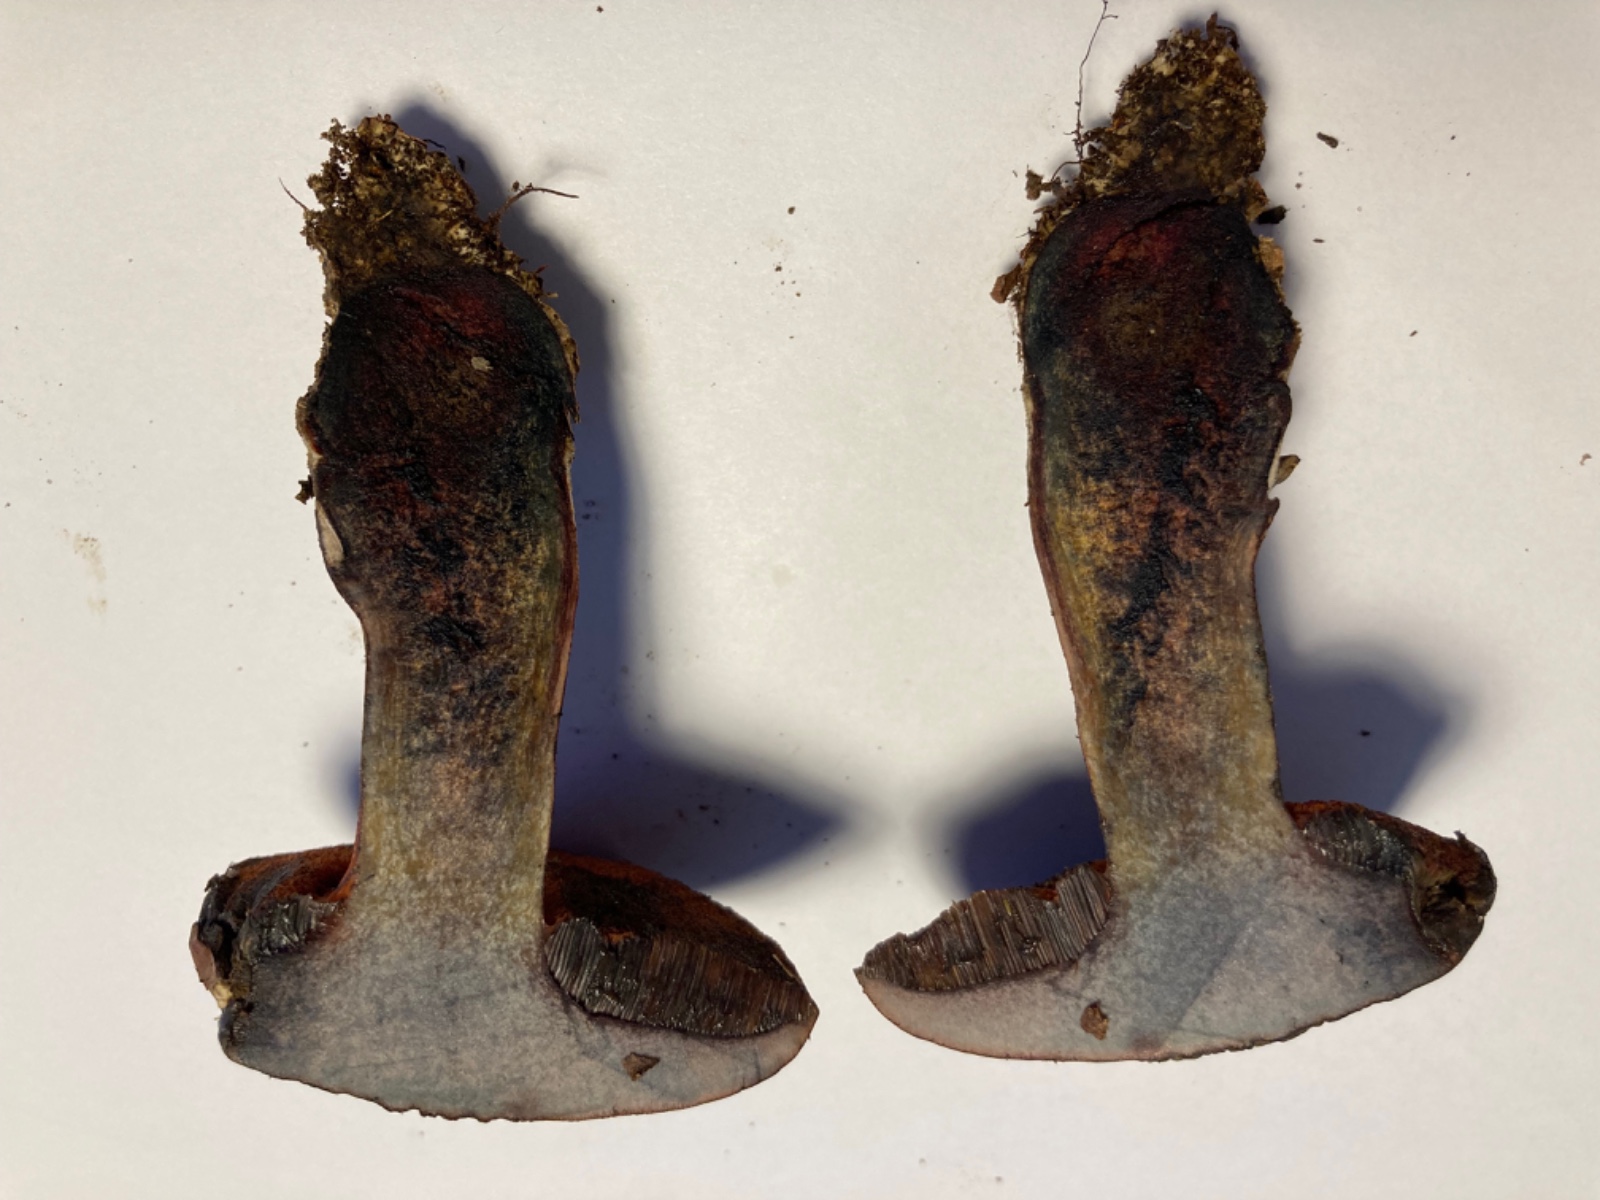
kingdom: Fungi
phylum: Basidiomycota
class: Agaricomycetes
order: Boletales
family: Boletaceae
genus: Suillellus
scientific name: Suillellus
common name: indigorørhat
